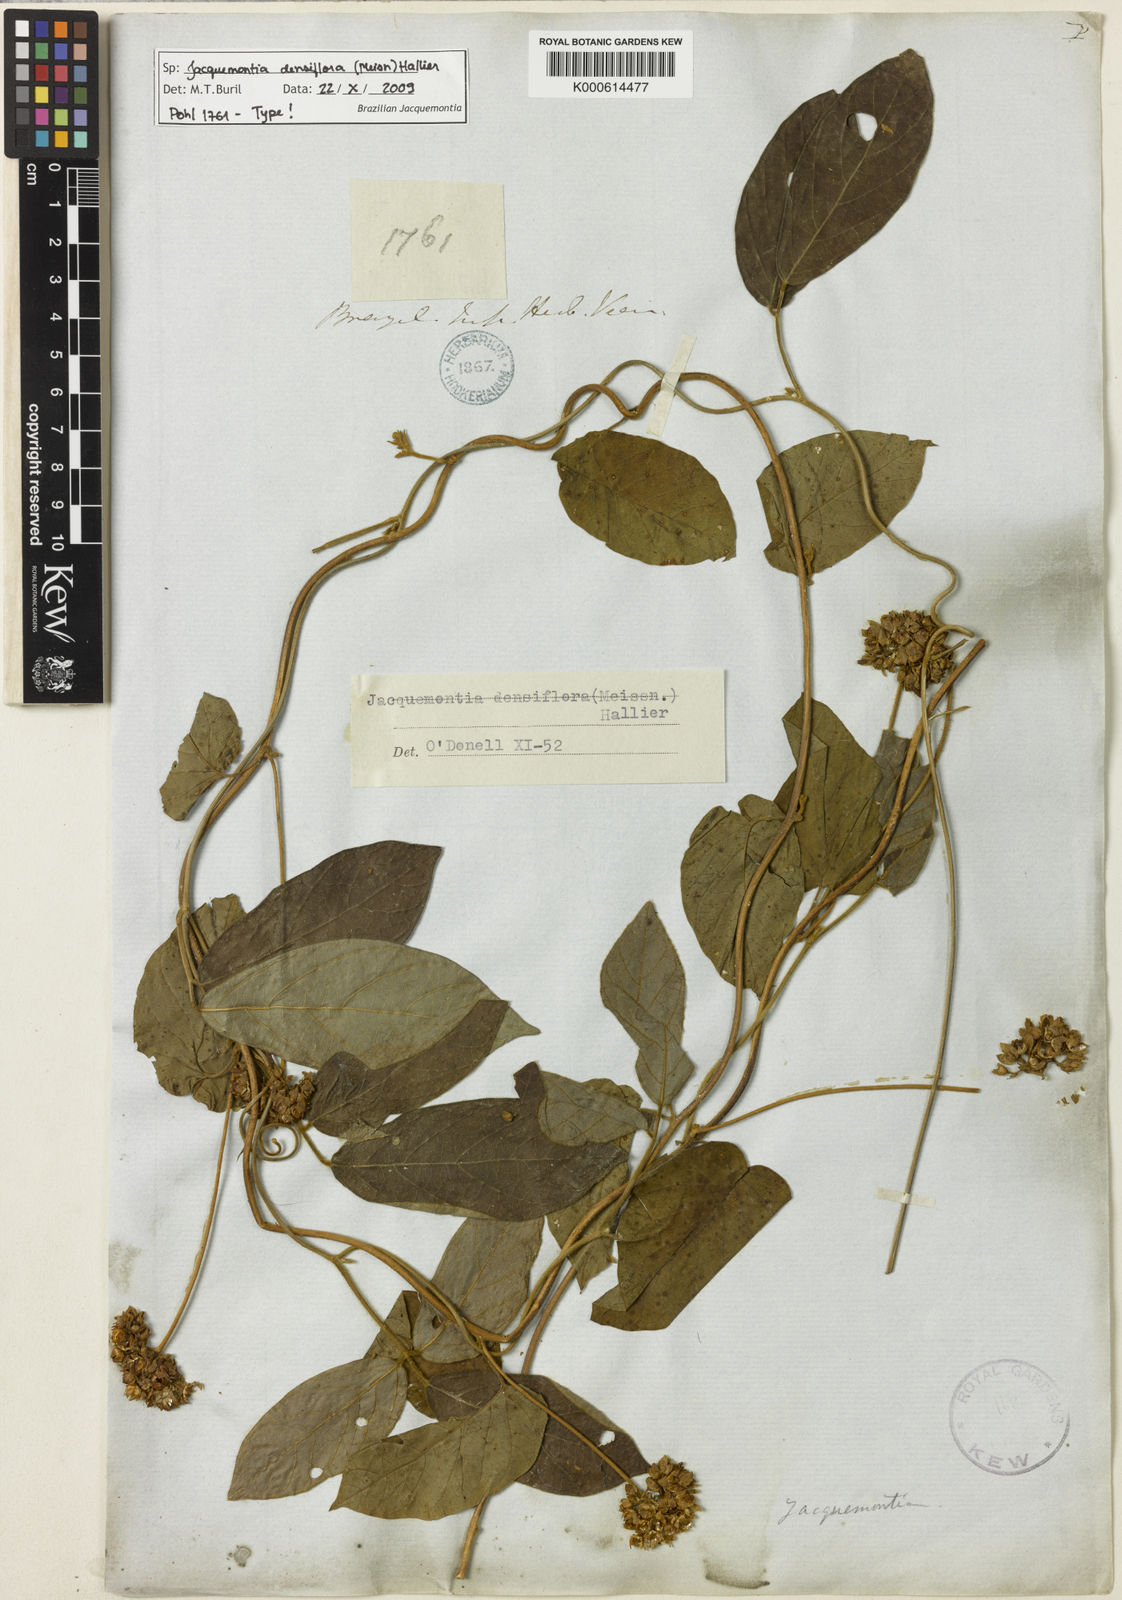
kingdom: Plantae
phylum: Tracheophyta
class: Magnoliopsida
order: Solanales
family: Convolvulaceae
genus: Jacquemontia
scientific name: Jacquemontia densiflora
